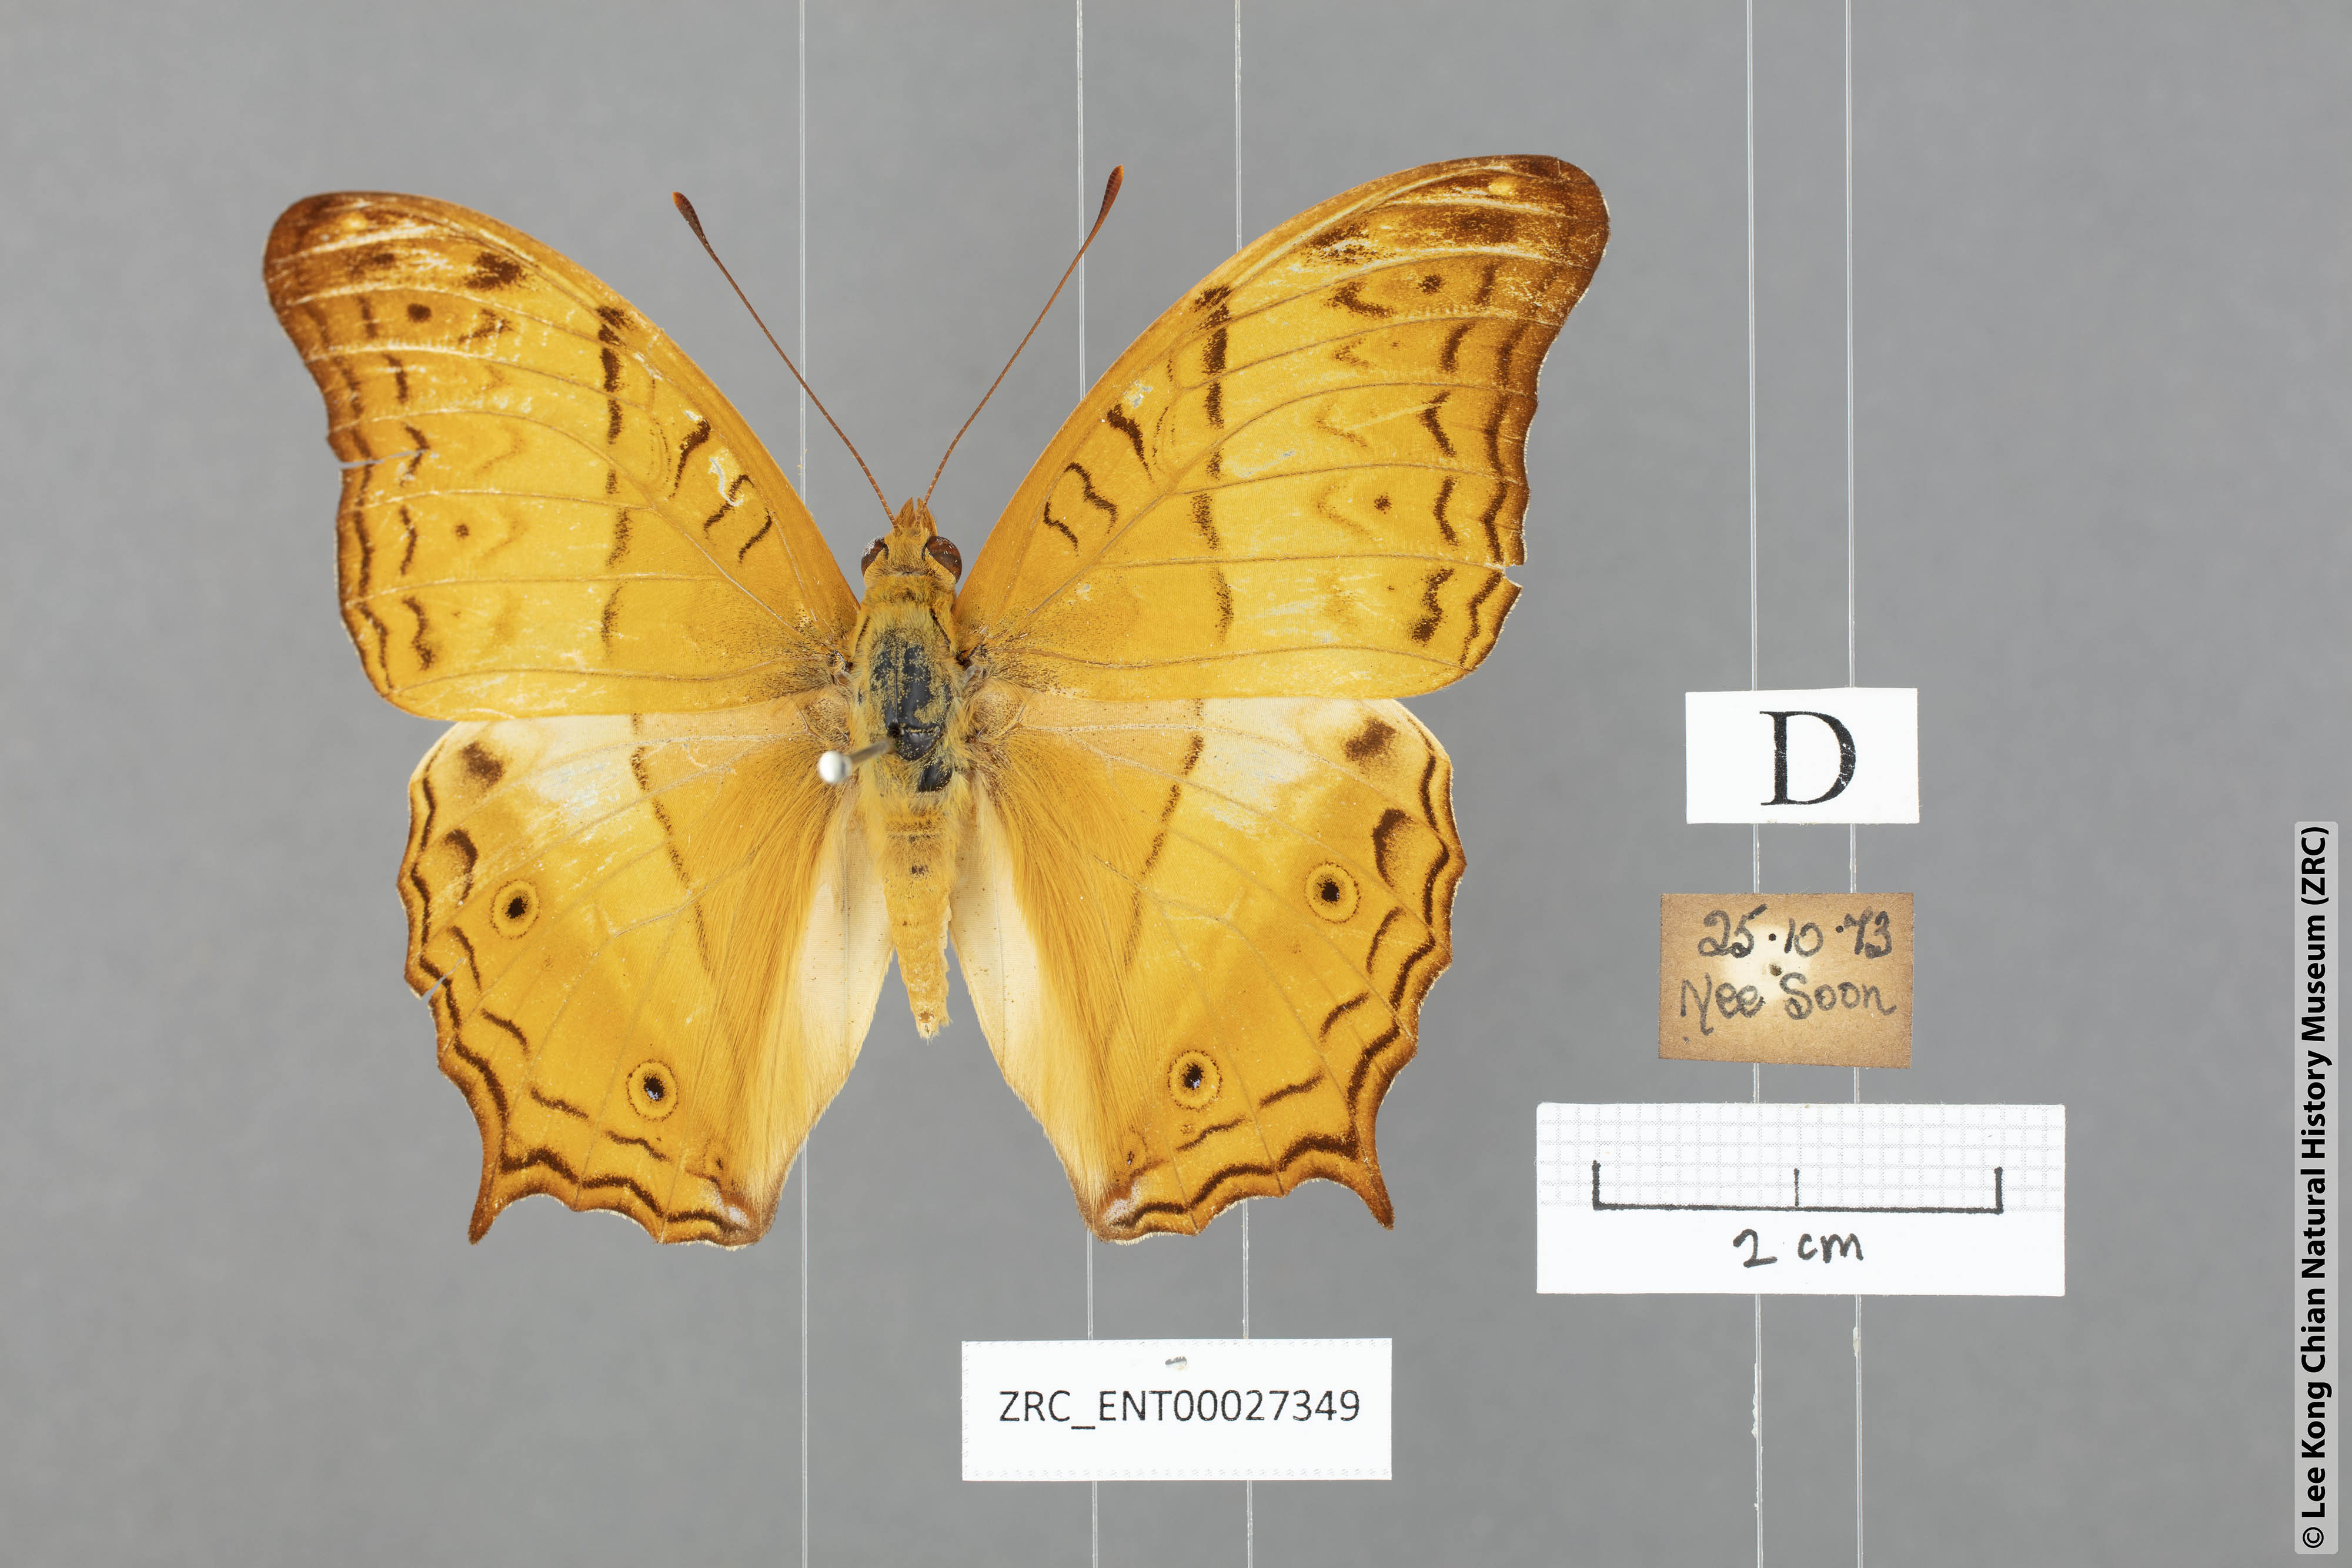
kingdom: Animalia
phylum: Arthropoda
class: Insecta
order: Lepidoptera
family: Nymphalidae
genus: Vindula
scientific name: Vindula deione
